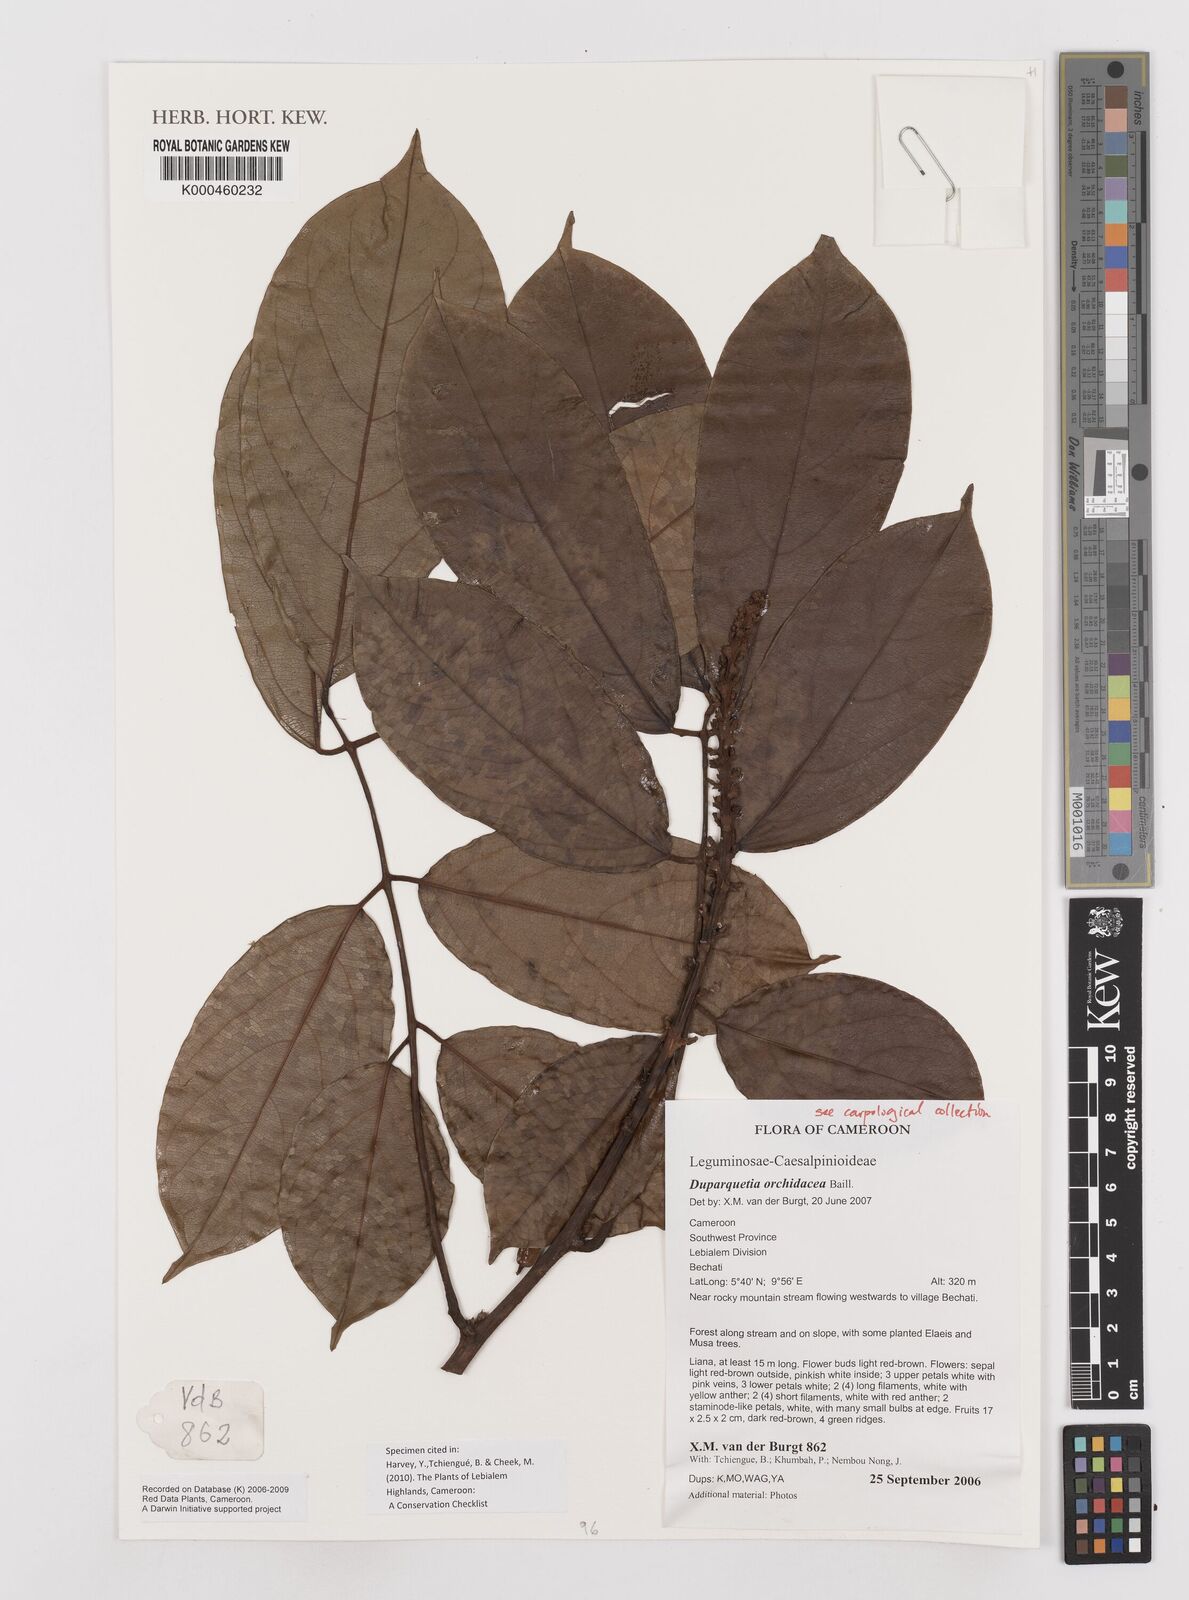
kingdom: Plantae
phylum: Tracheophyta
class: Magnoliopsida
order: Fabales
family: Fabaceae
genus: Duparquetia
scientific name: Duparquetia orchidacea
